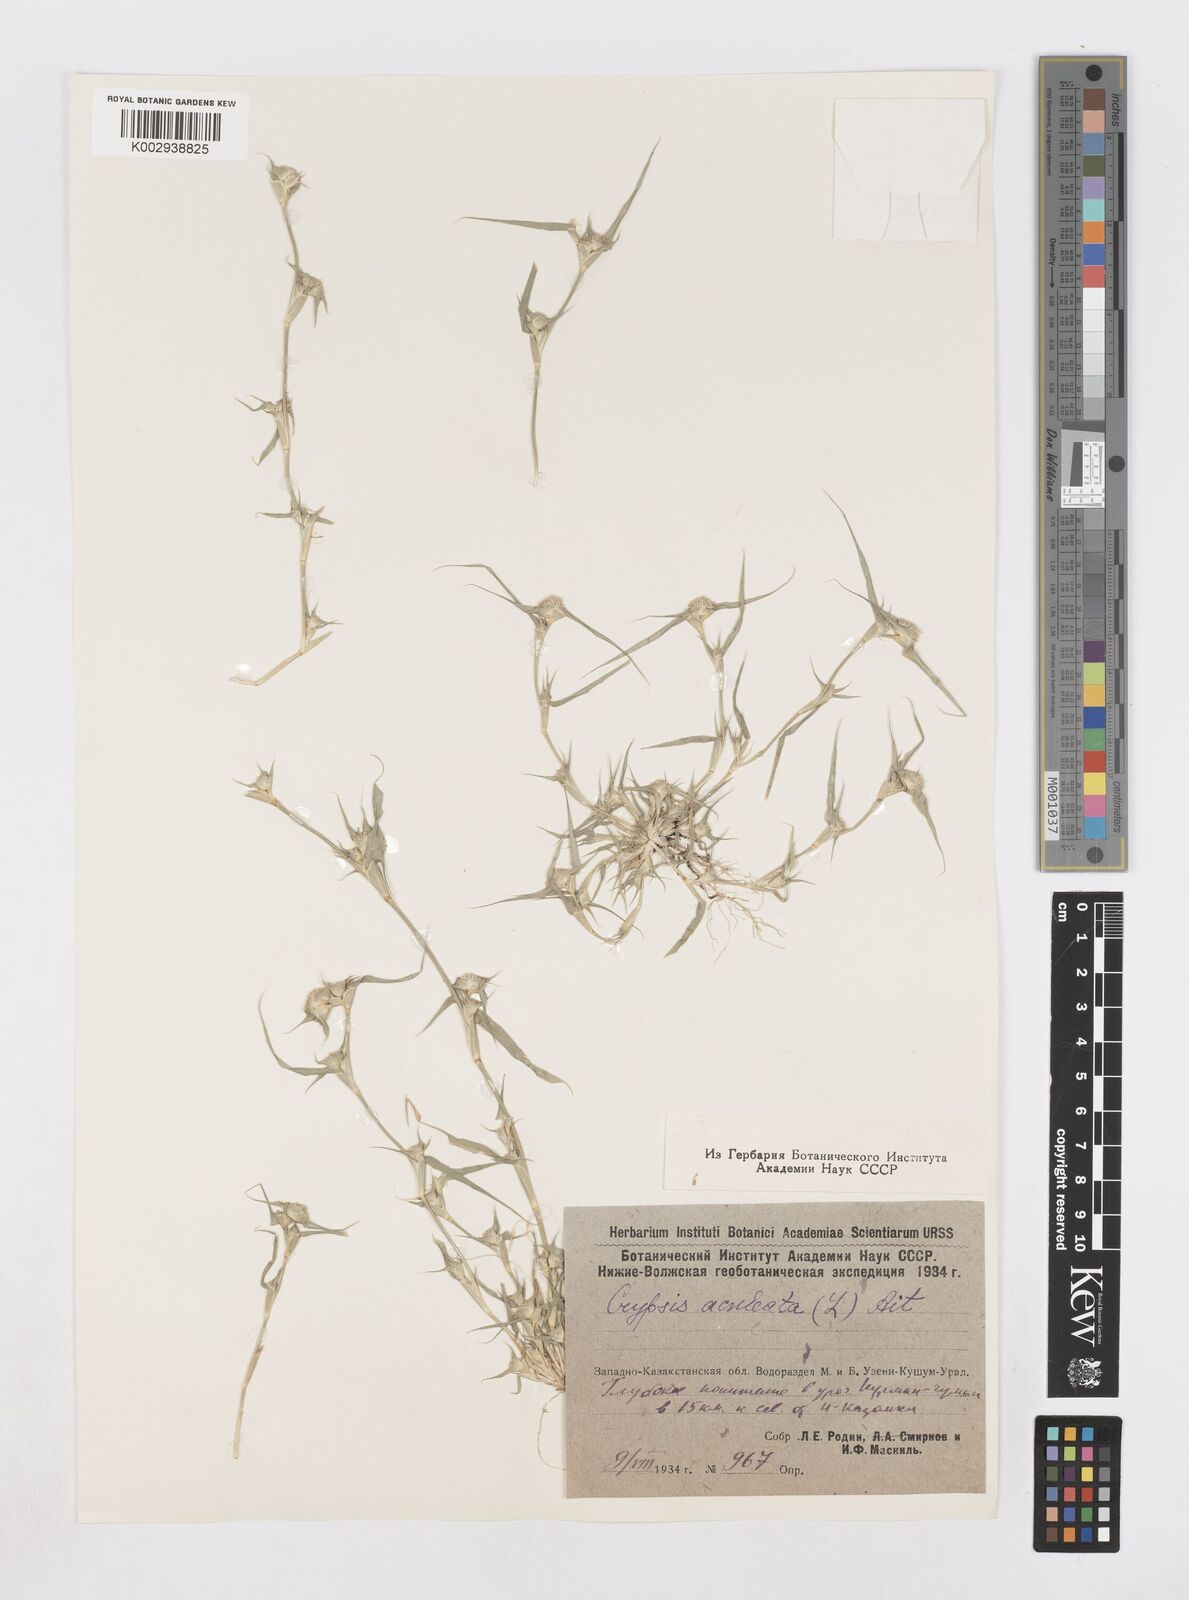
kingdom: Plantae
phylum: Tracheophyta
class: Liliopsida
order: Poales
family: Poaceae
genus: Sporobolus
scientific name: Sporobolus aculeatus
